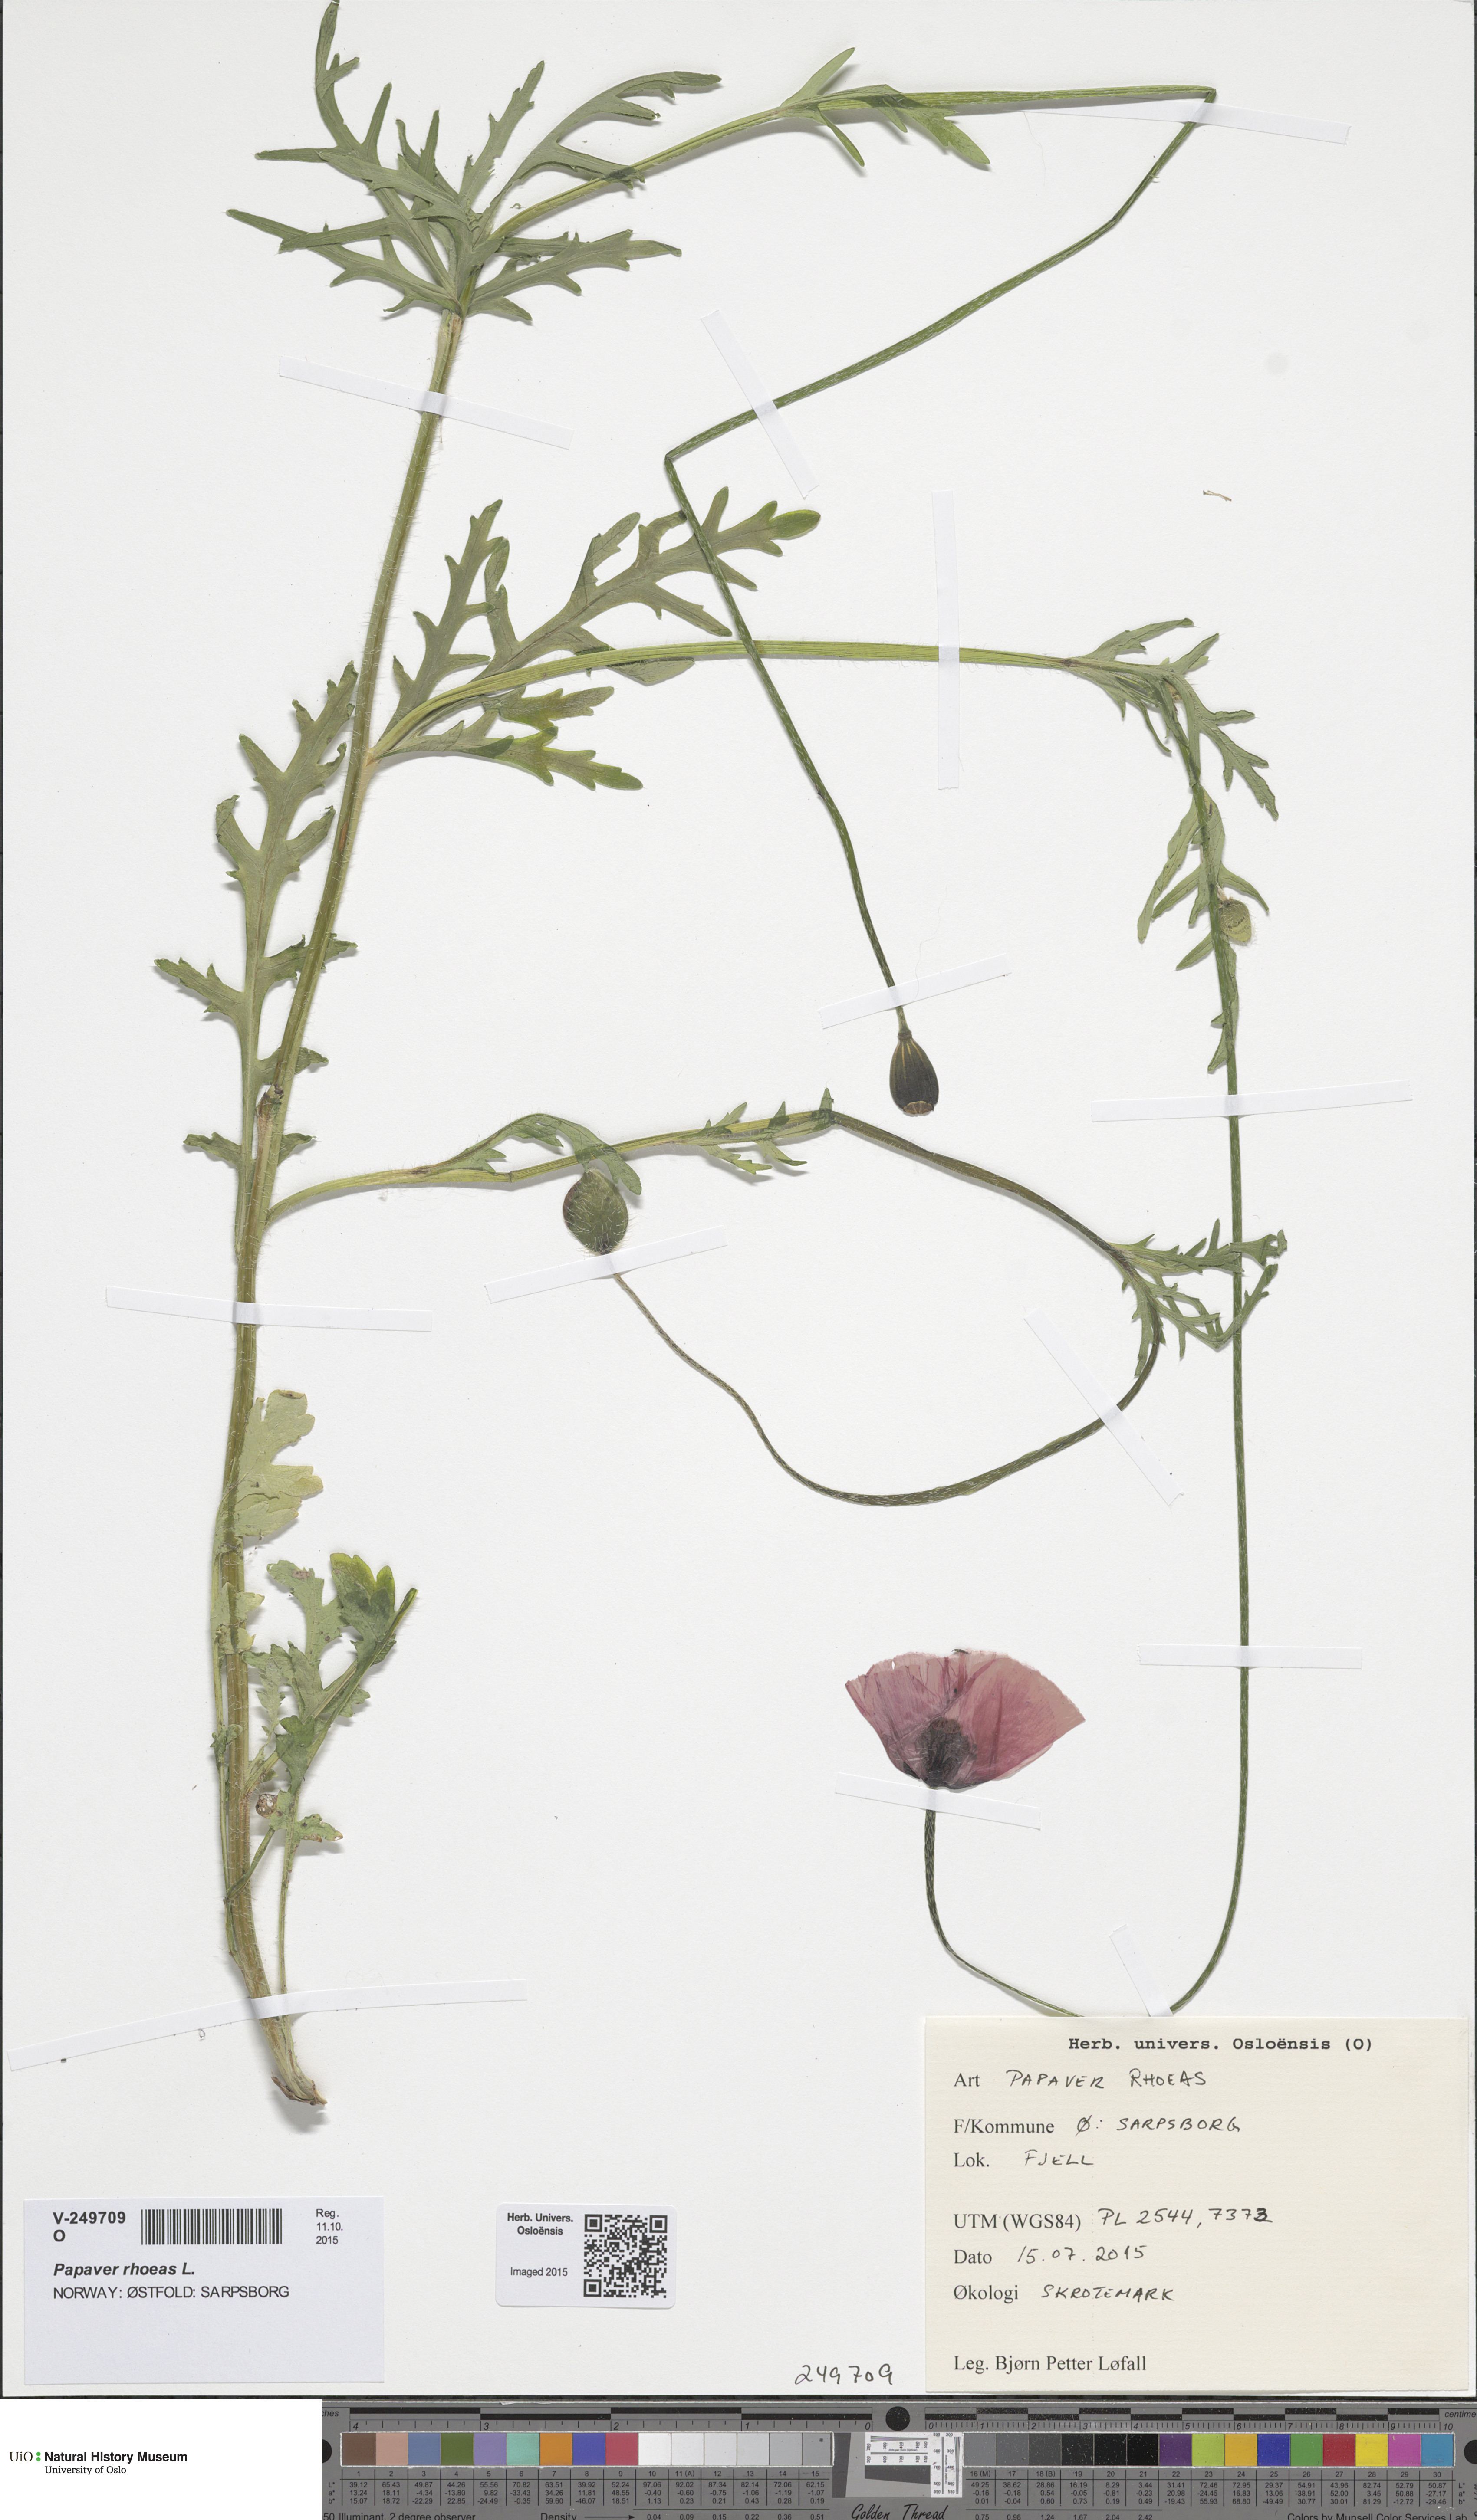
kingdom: Plantae
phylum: Tracheophyta
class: Magnoliopsida
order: Ranunculales
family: Papaveraceae
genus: Papaver
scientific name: Papaver rhoeas
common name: Corn poppy
